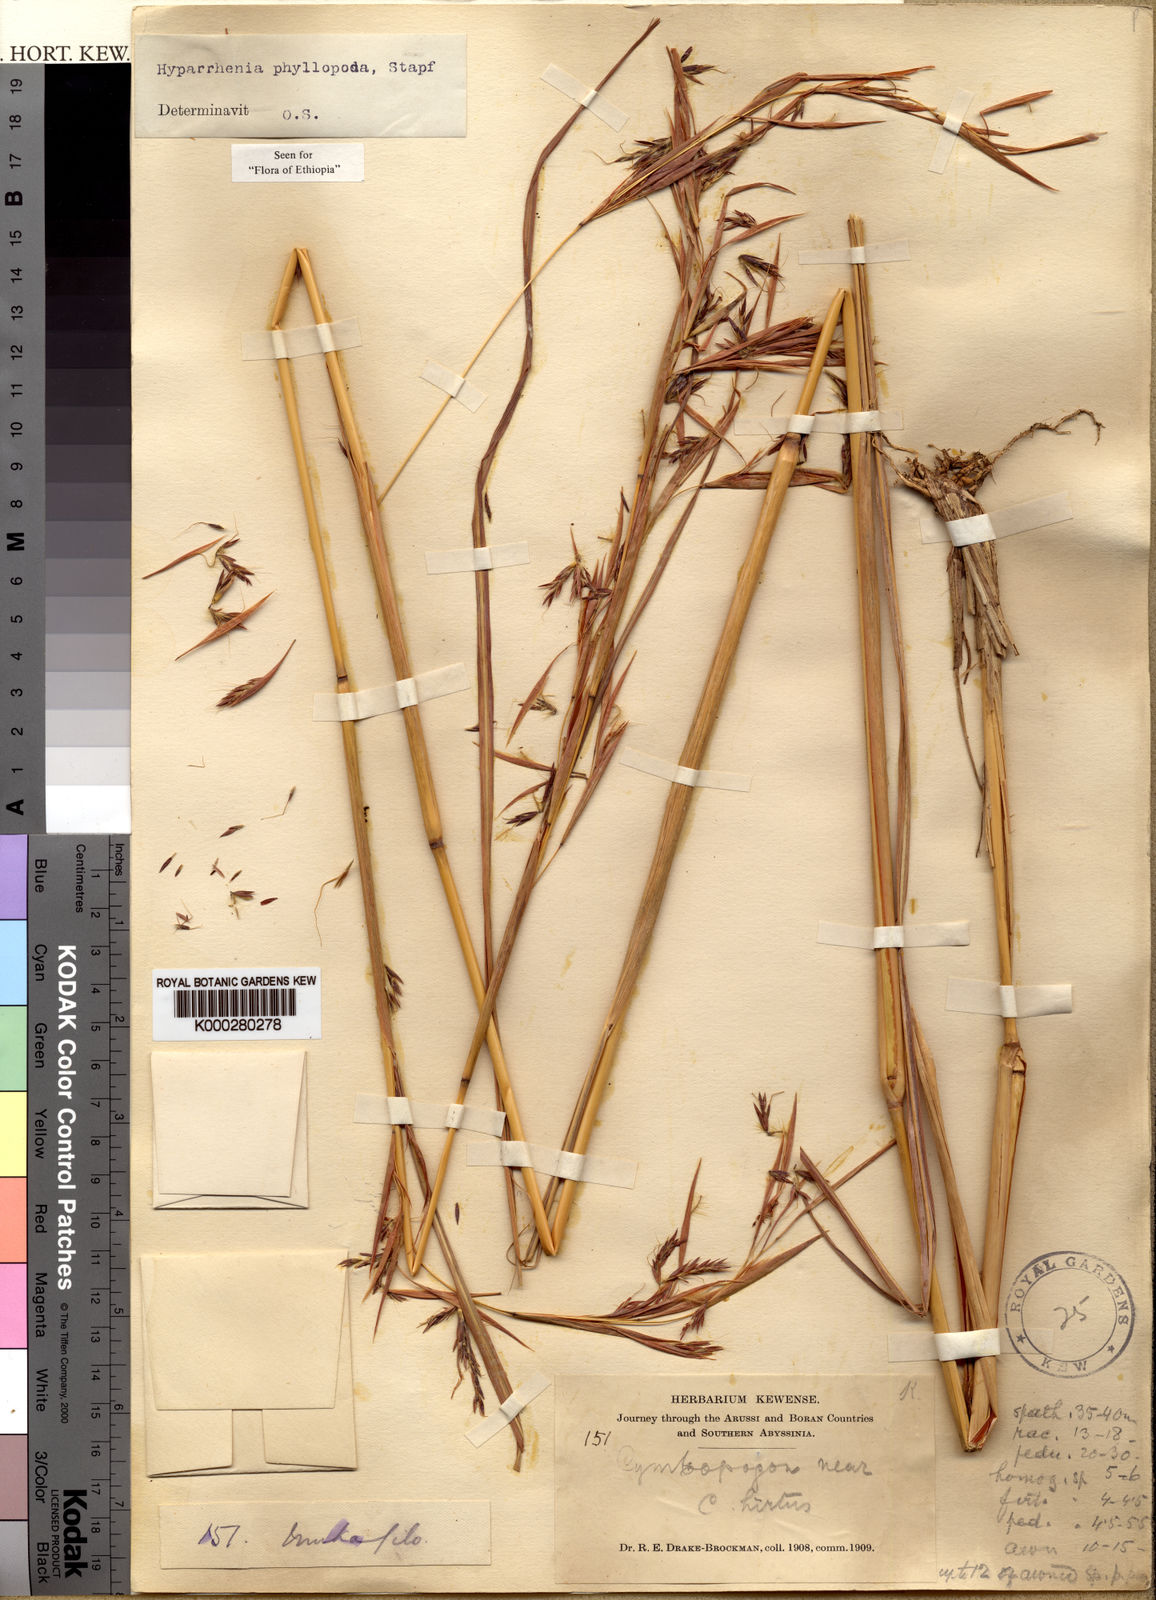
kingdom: Plantae
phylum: Tracheophyta
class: Liliopsida
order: Poales
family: Poaceae
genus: Hyparrhenia
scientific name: Hyparrhenia dregeana
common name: Silky thatching grass
